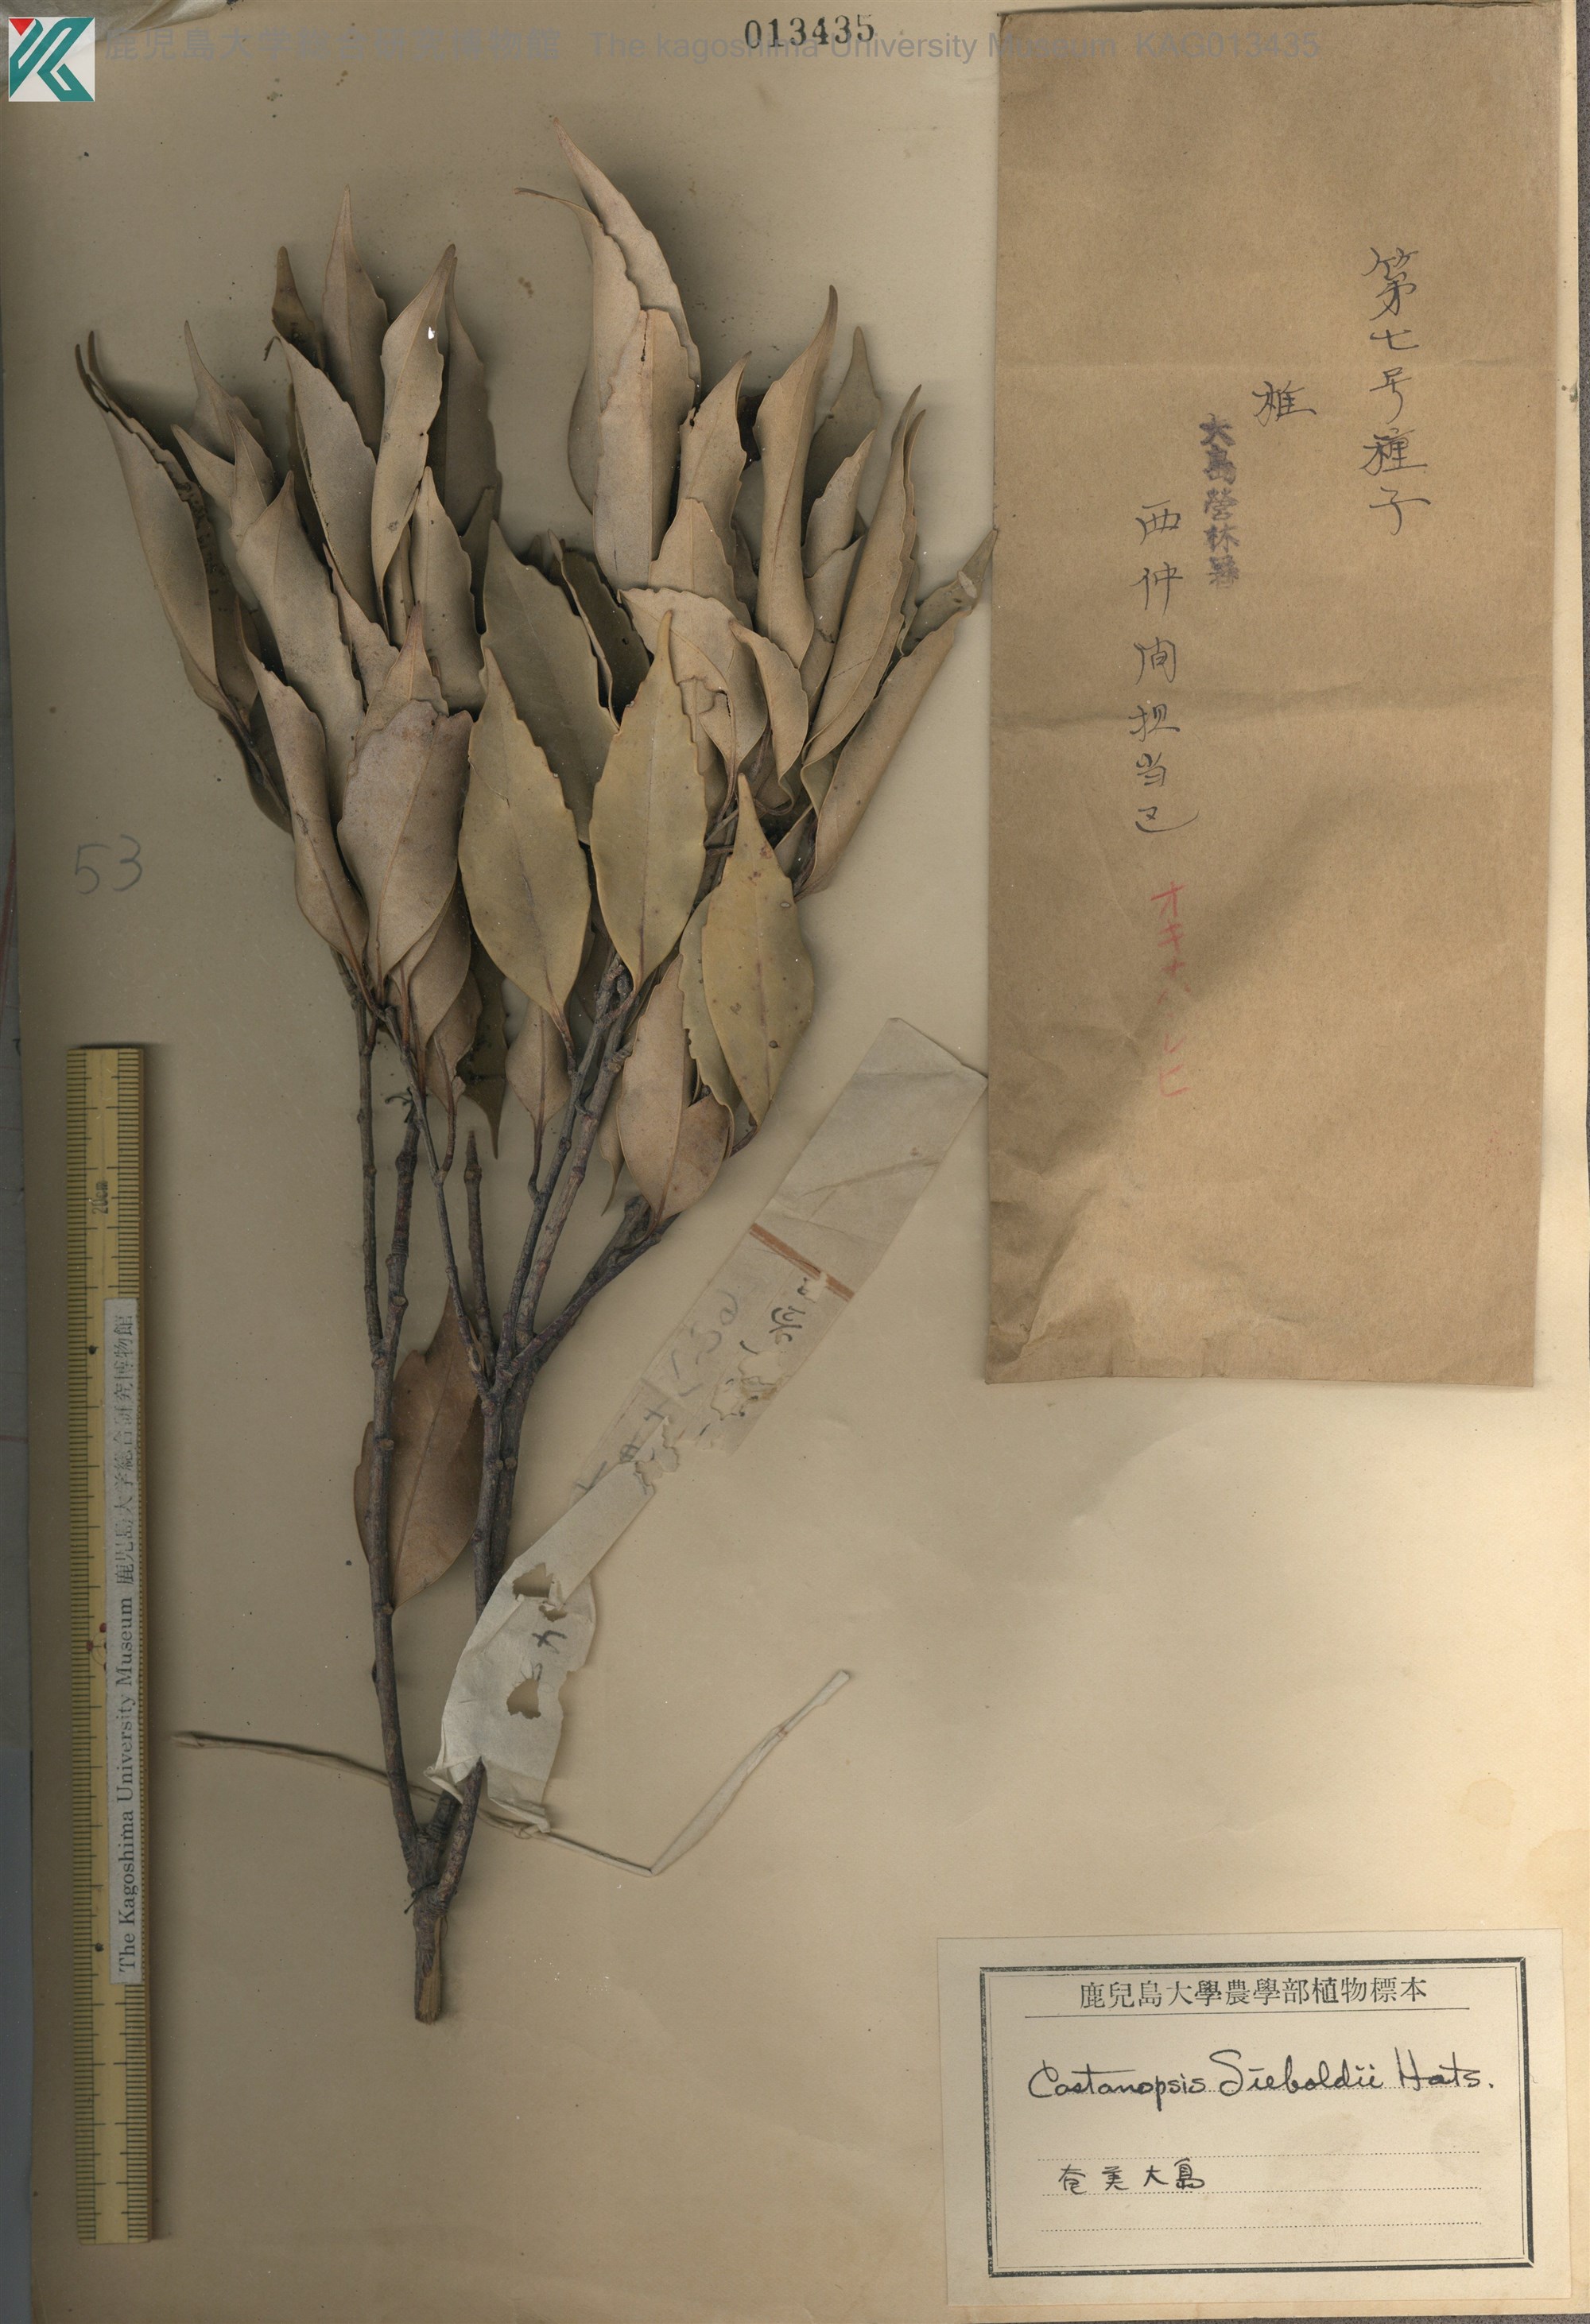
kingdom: Plantae
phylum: Tracheophyta
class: Magnoliopsida
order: Fagales
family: Fagaceae
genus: Castanopsis
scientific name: Castanopsis sieboldii
